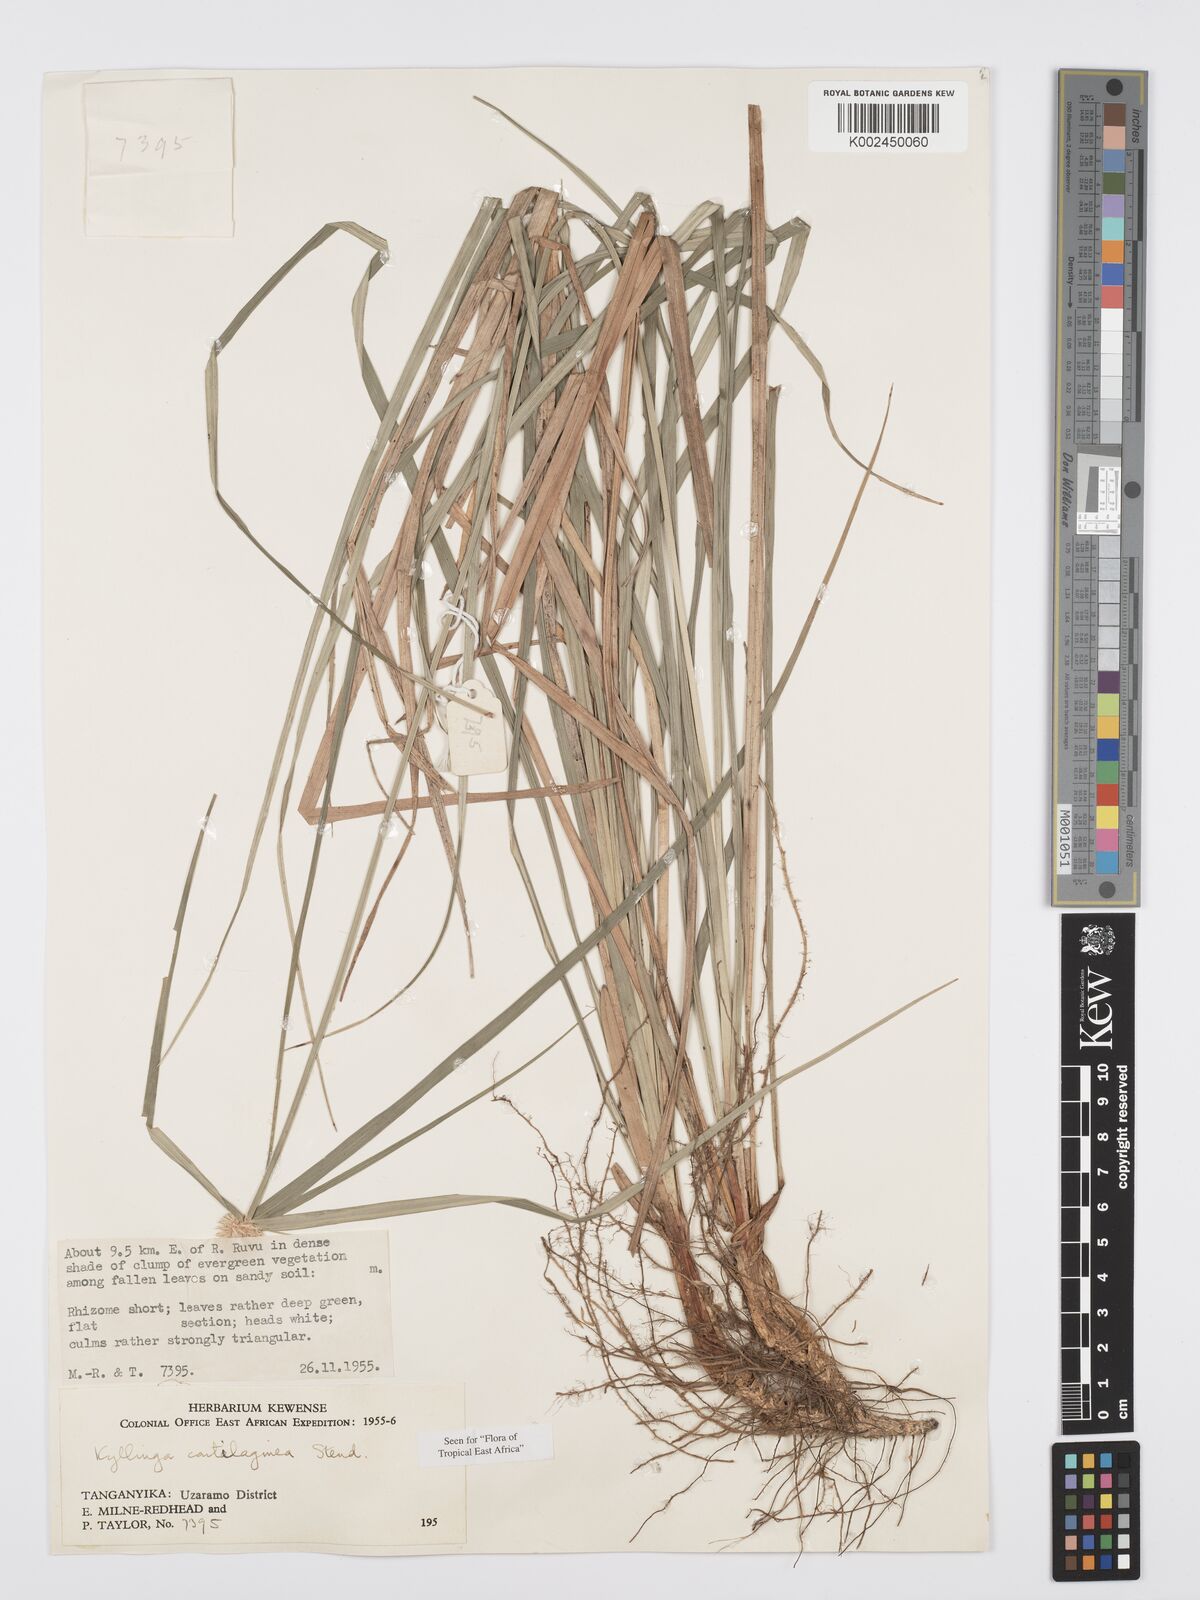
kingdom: Plantae
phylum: Tracheophyta
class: Liliopsida
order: Poales
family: Cyperaceae
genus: Cyperus
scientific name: Cyperus cartilagineus
